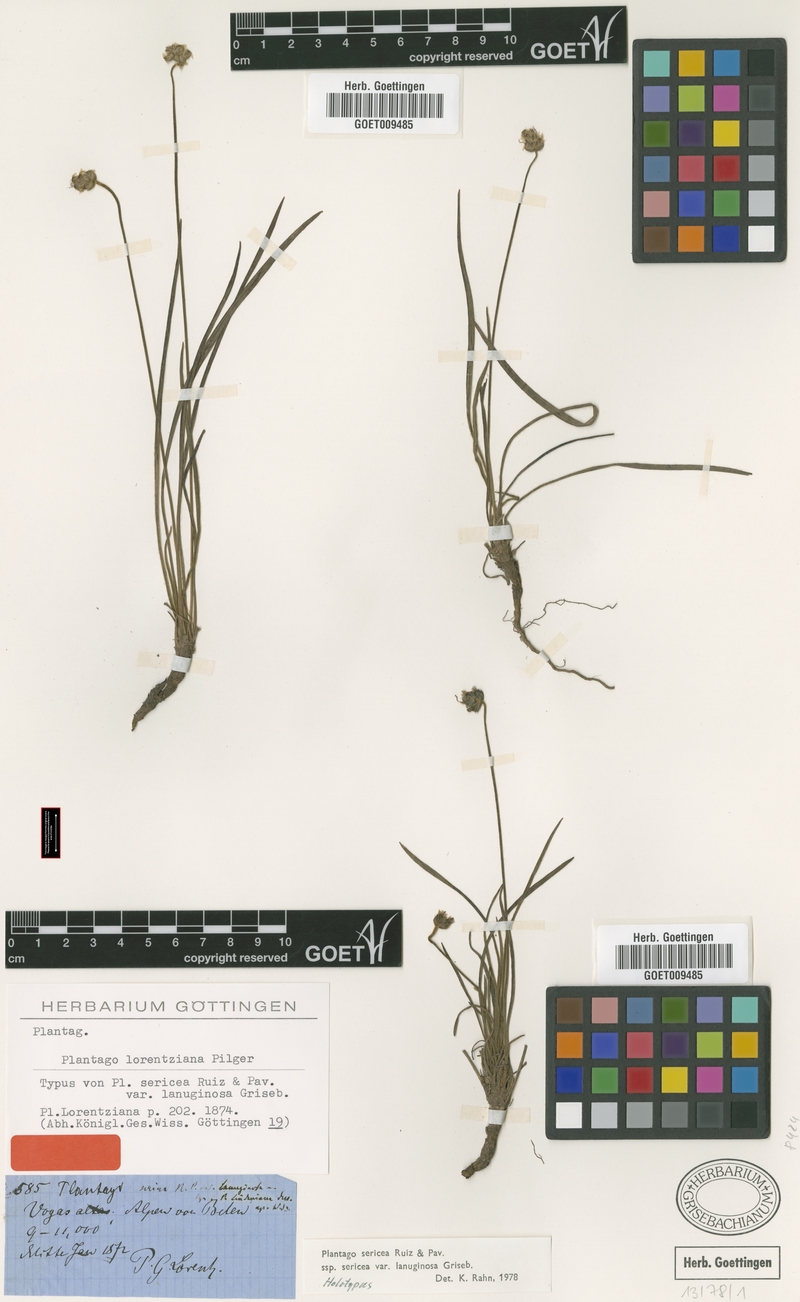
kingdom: Plantae
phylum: Tracheophyta
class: Magnoliopsida
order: Lamiales
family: Plantaginaceae
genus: Plantago
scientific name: Plantago sericea
